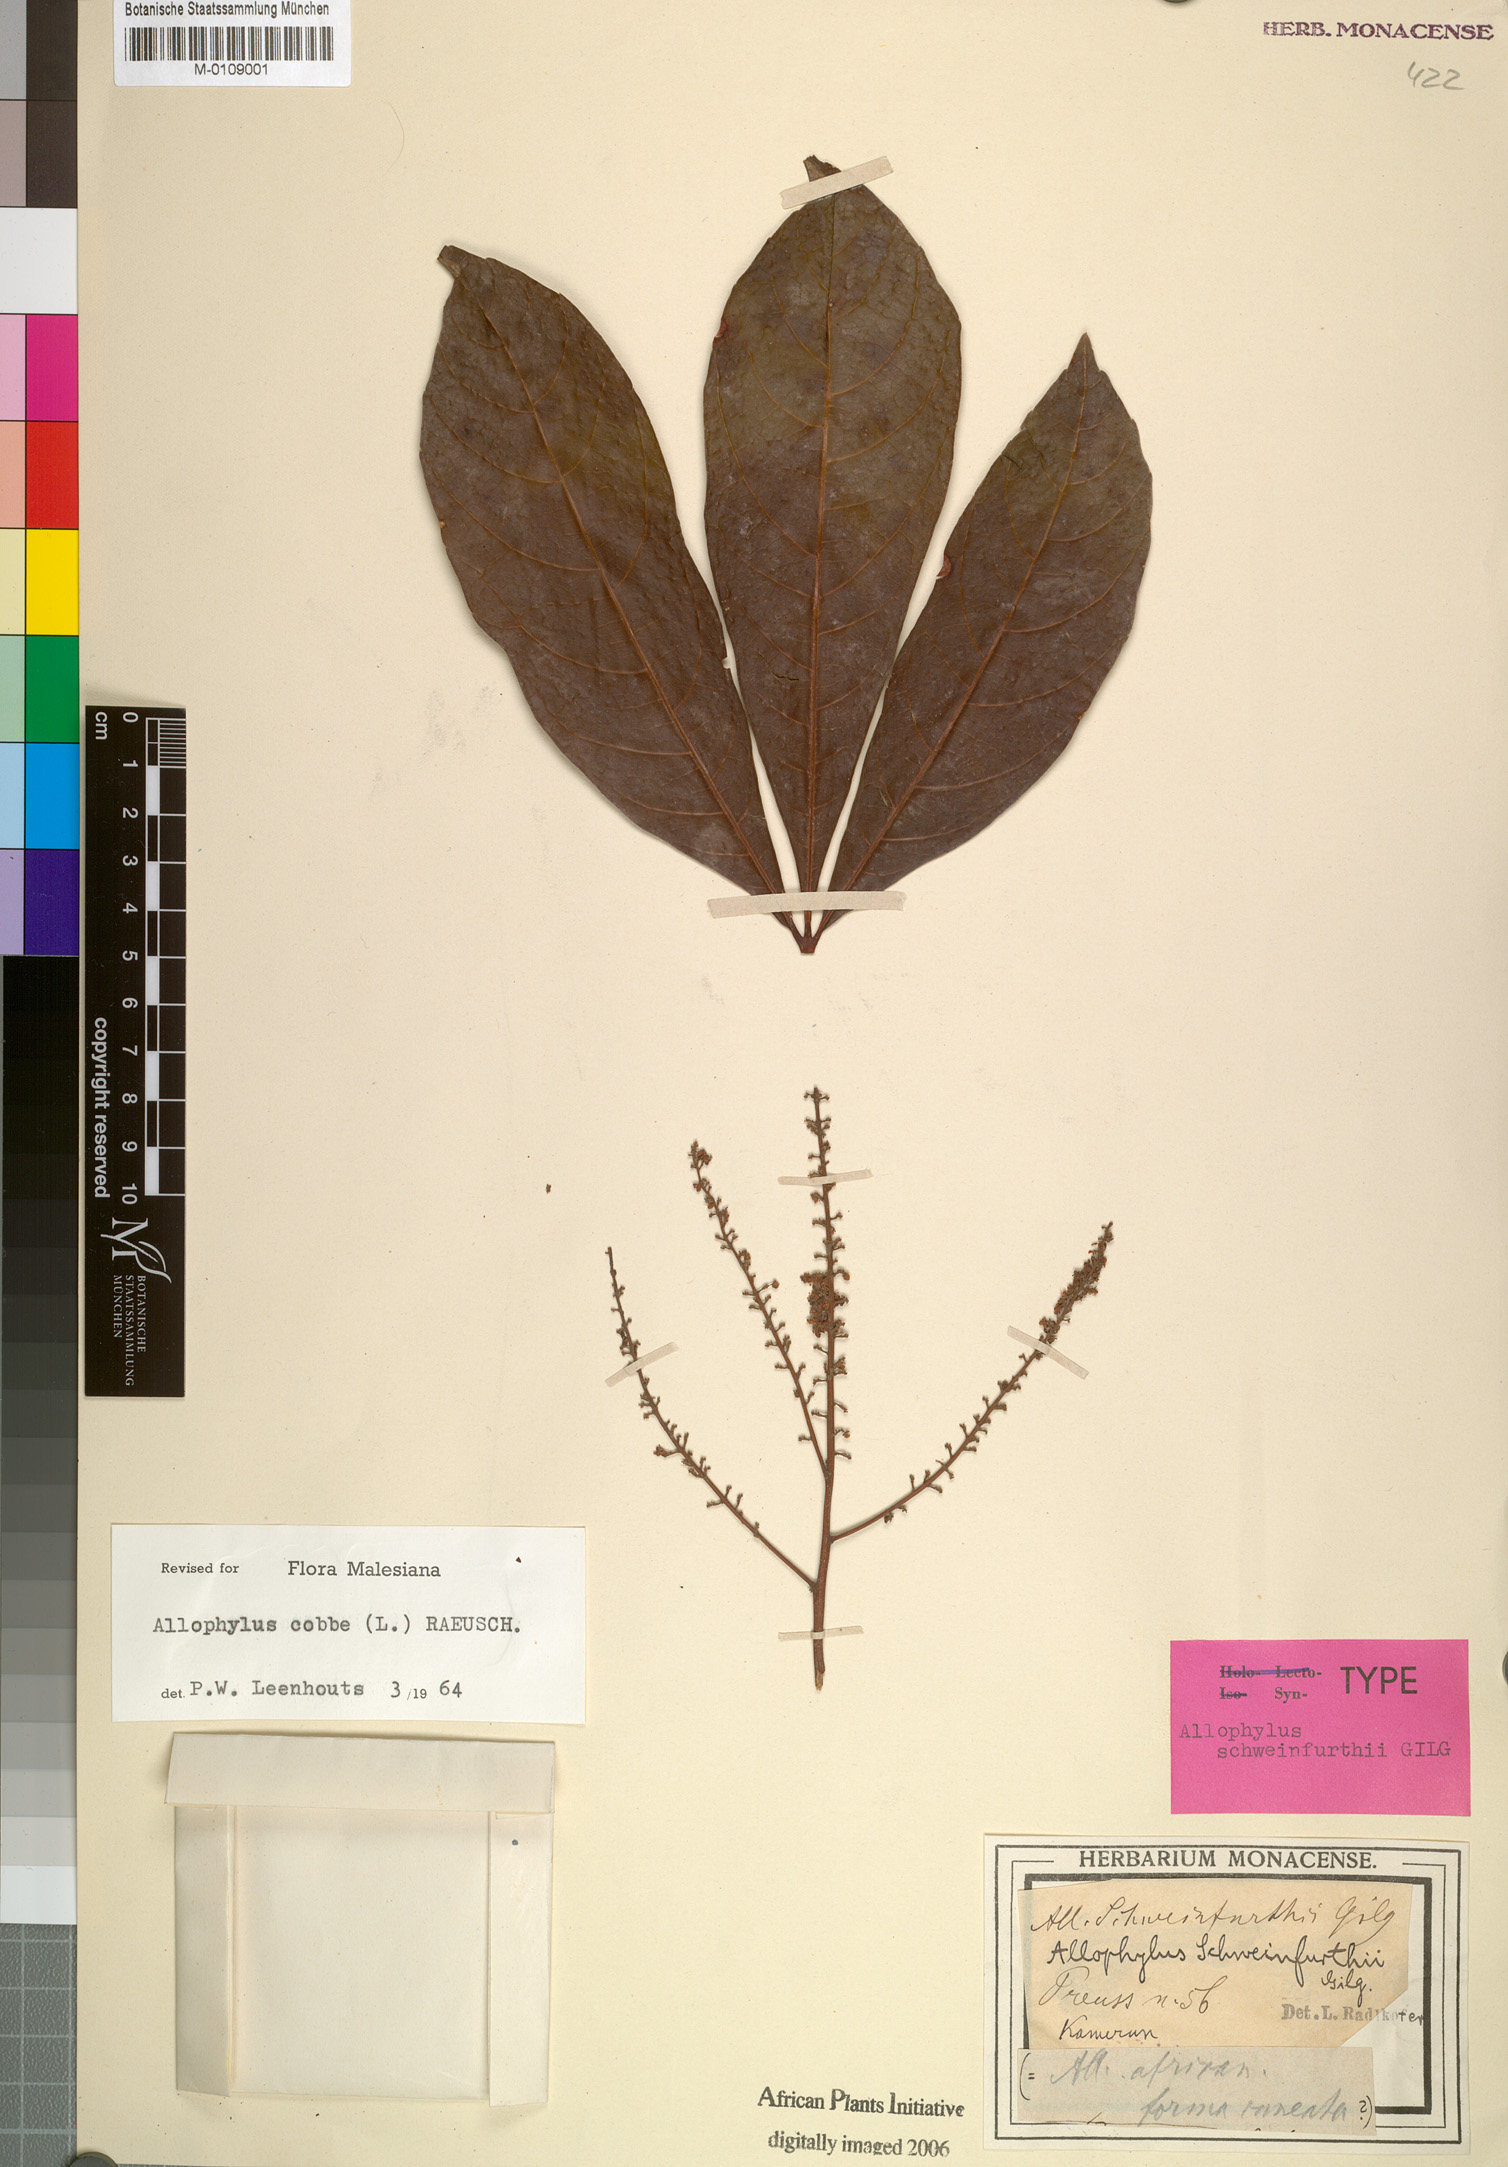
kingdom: Plantae
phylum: Tracheophyta
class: Magnoliopsida
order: Sapindales
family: Sapindaceae
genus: Allophylus
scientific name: Allophylus africanus
